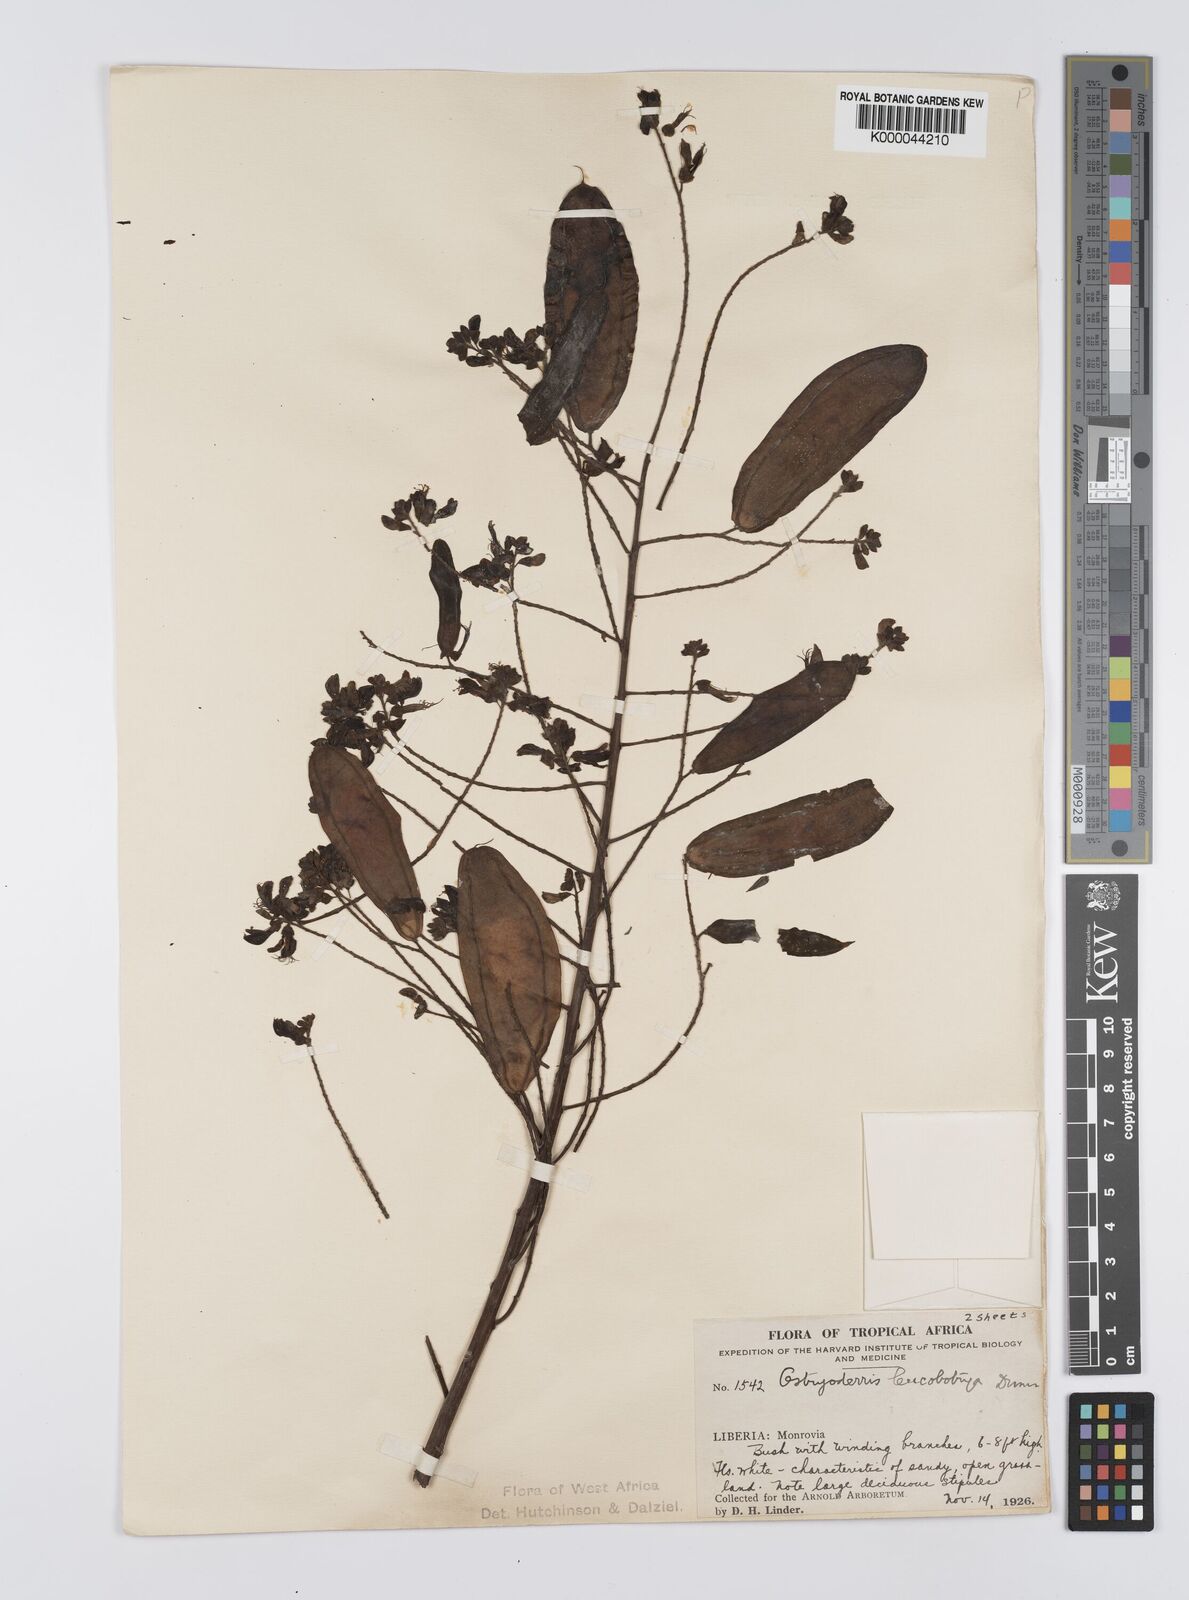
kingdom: Plantae
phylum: Tracheophyta
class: Magnoliopsida
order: Fabales
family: Fabaceae
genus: Aganope
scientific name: Aganope leucobotrya
